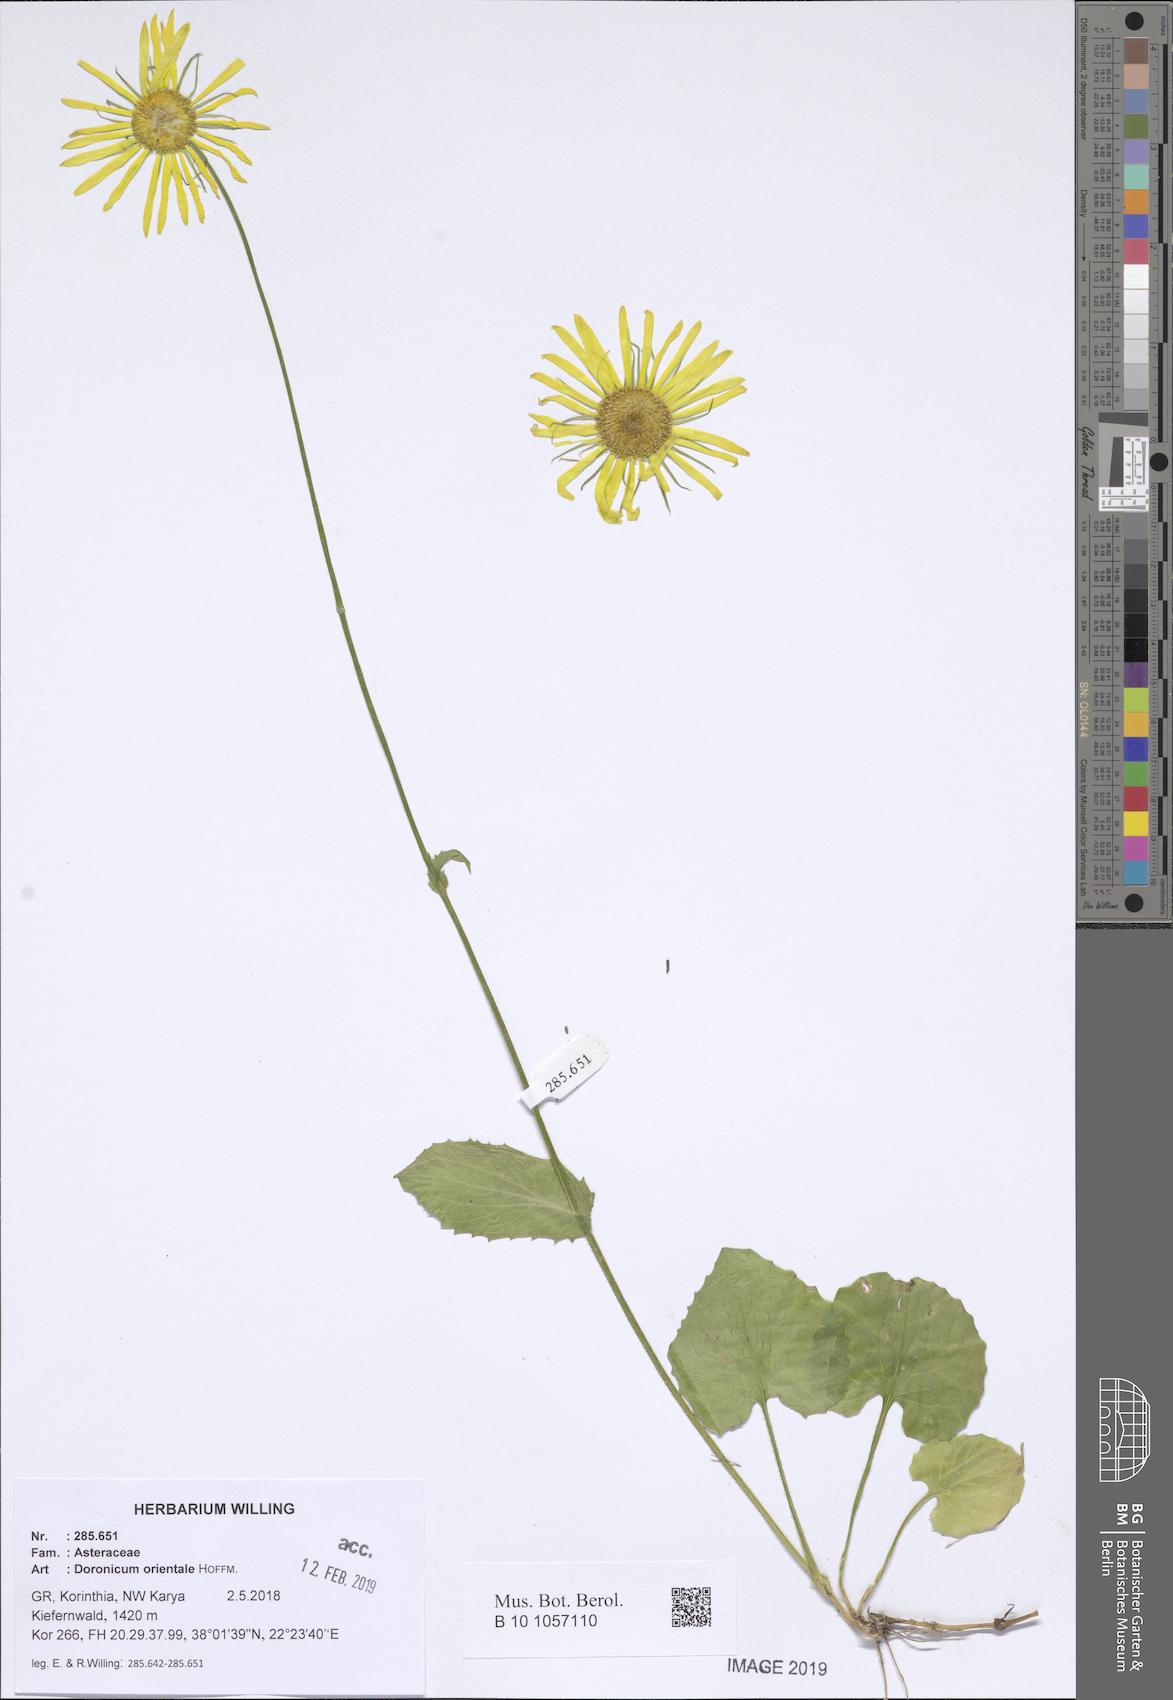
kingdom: Plantae
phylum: Tracheophyta
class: Magnoliopsida
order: Asterales
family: Asteraceae
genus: Doronicum
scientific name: Doronicum orientale
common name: Oriental leopard's-bane
